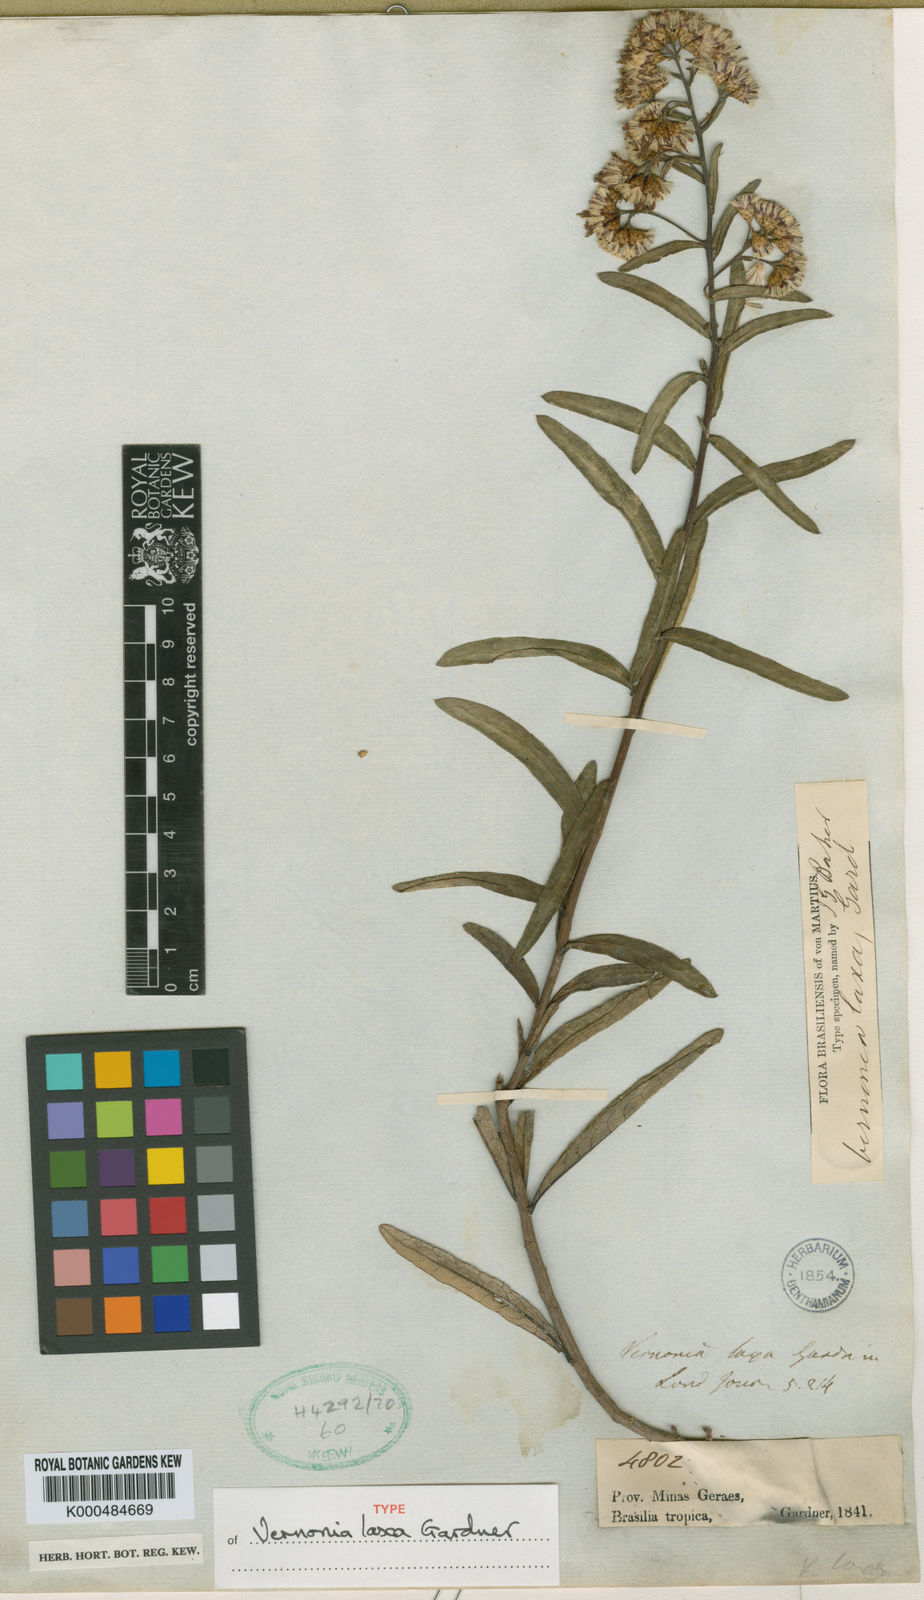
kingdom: Plantae
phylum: Tracheophyta
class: Magnoliopsida
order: Asterales
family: Asteraceae
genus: Vernonanthura
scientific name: Vernonanthura laxa
